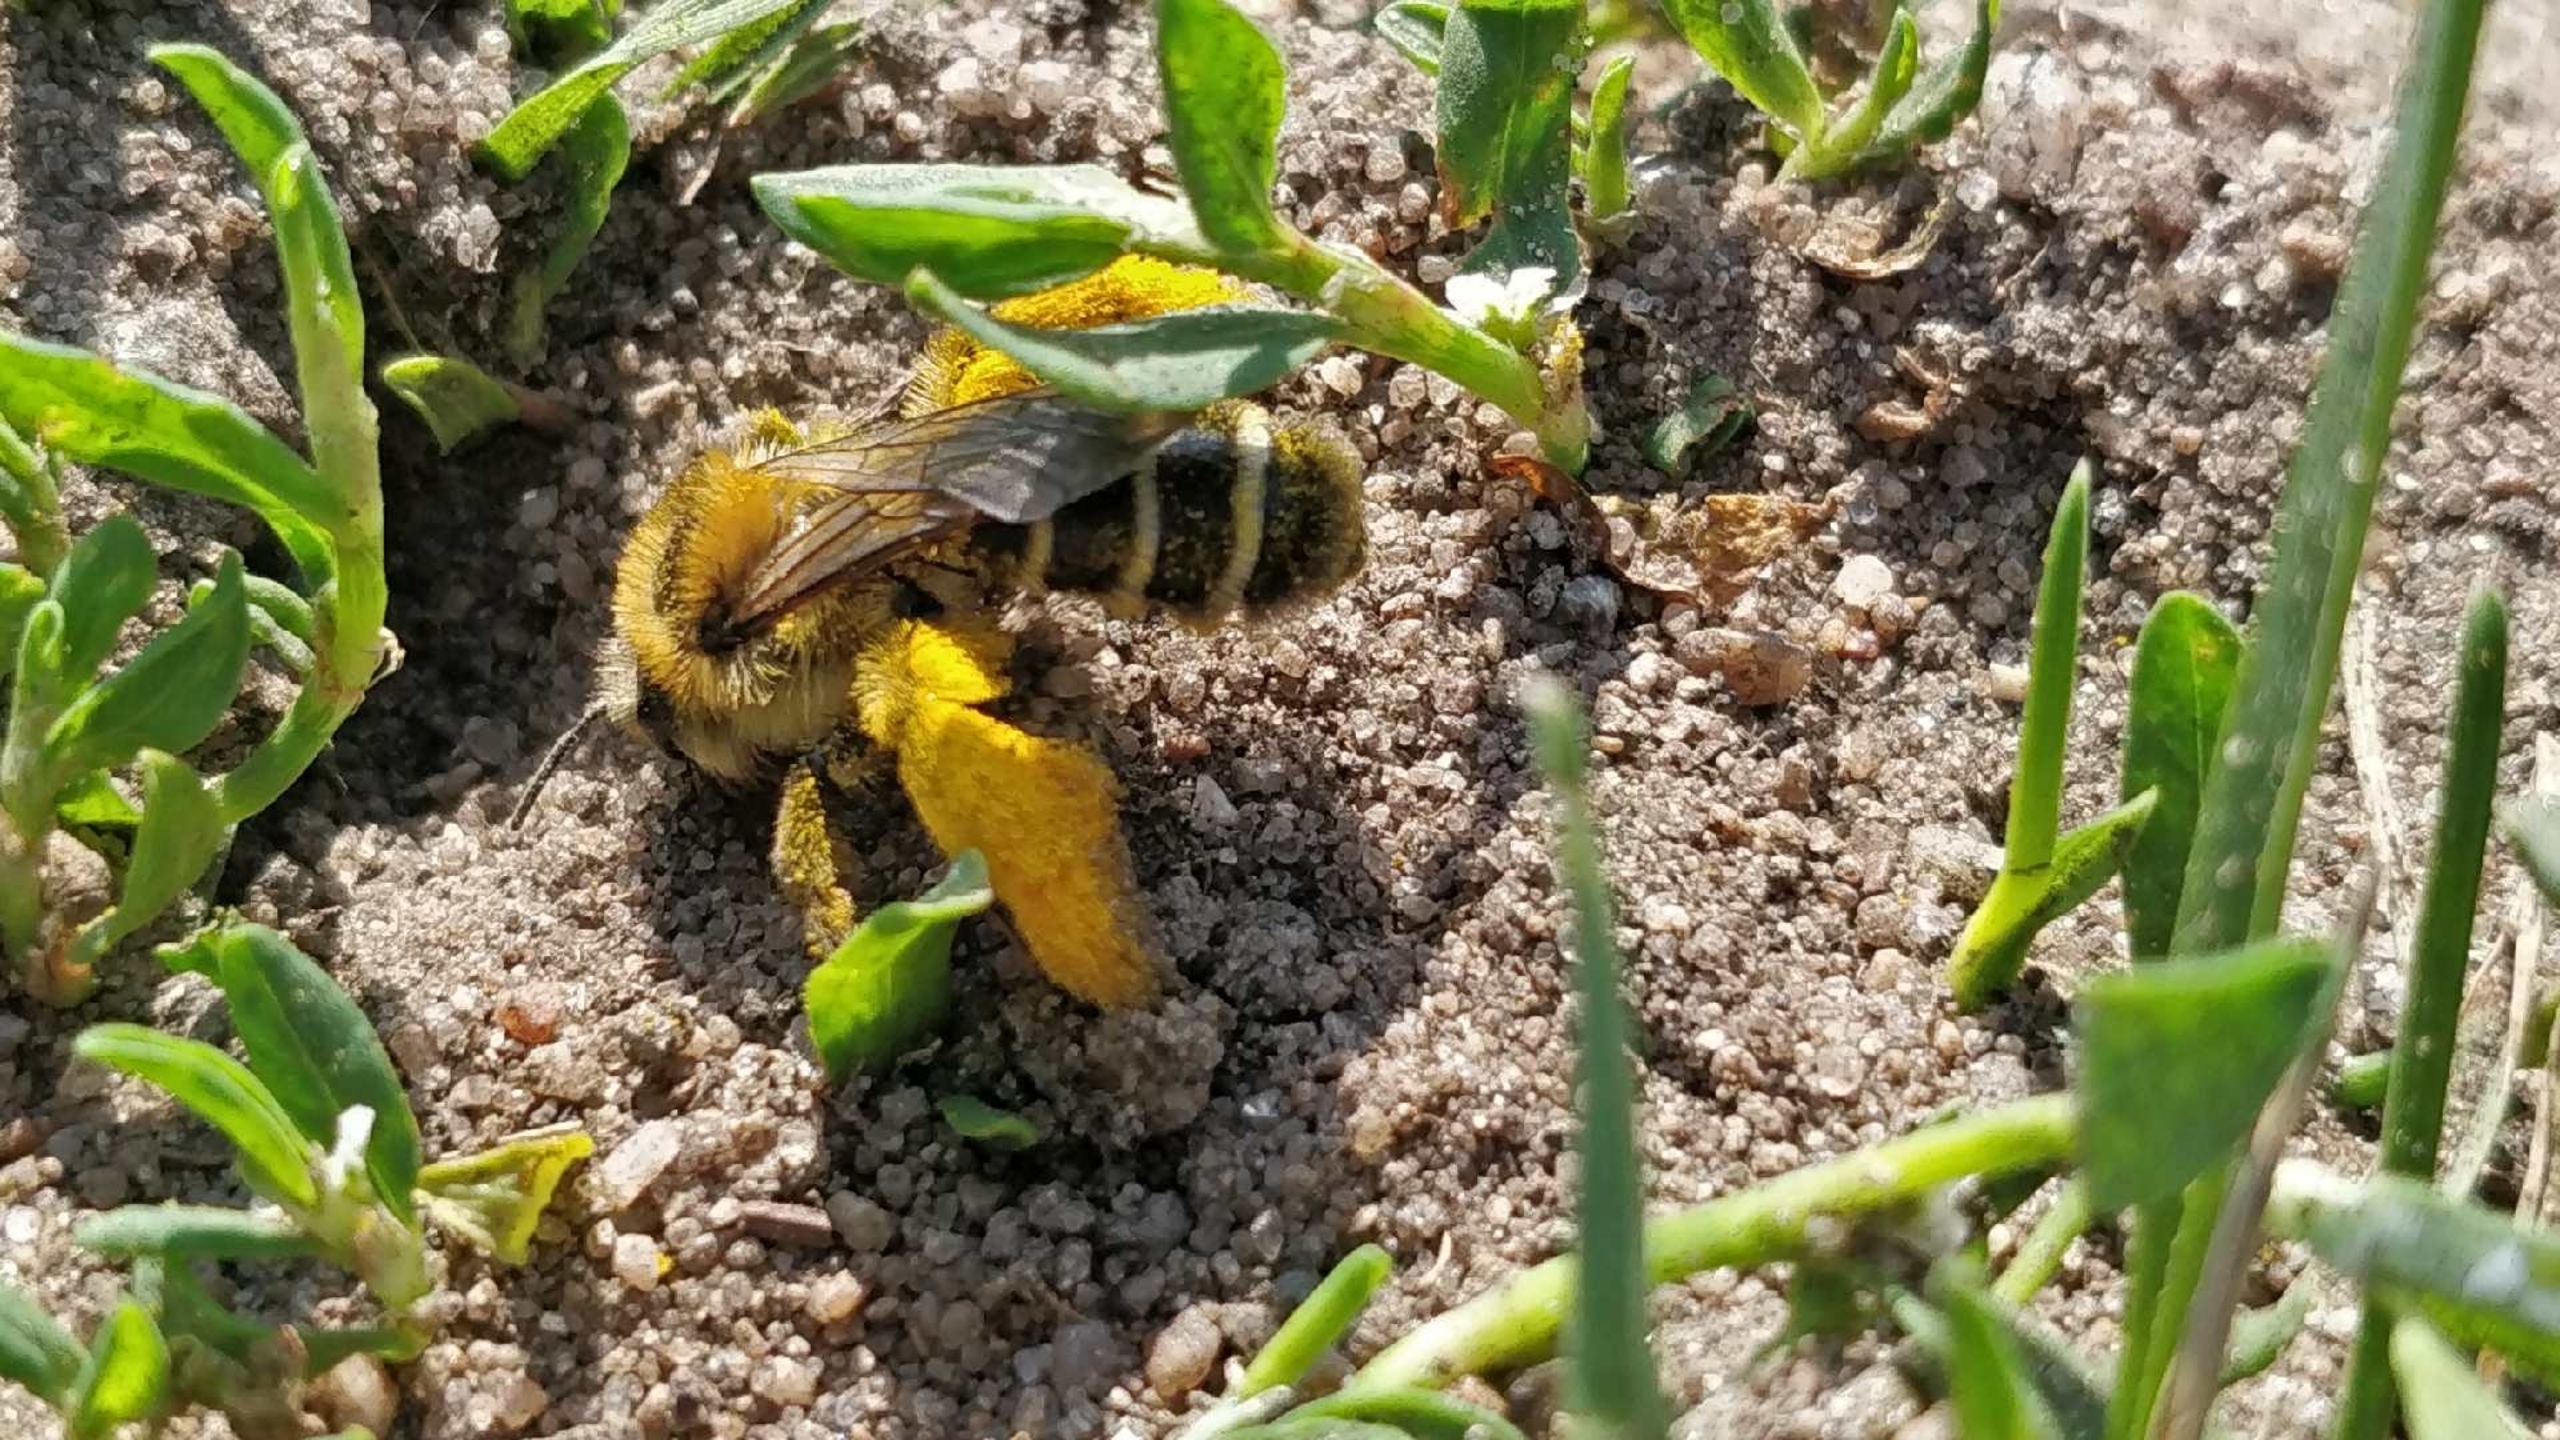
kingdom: Animalia
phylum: Arthropoda
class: Insecta
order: Hymenoptera
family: Melittidae
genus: Dasypoda
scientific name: Dasypoda hirtipes
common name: Pragtbuksebi
